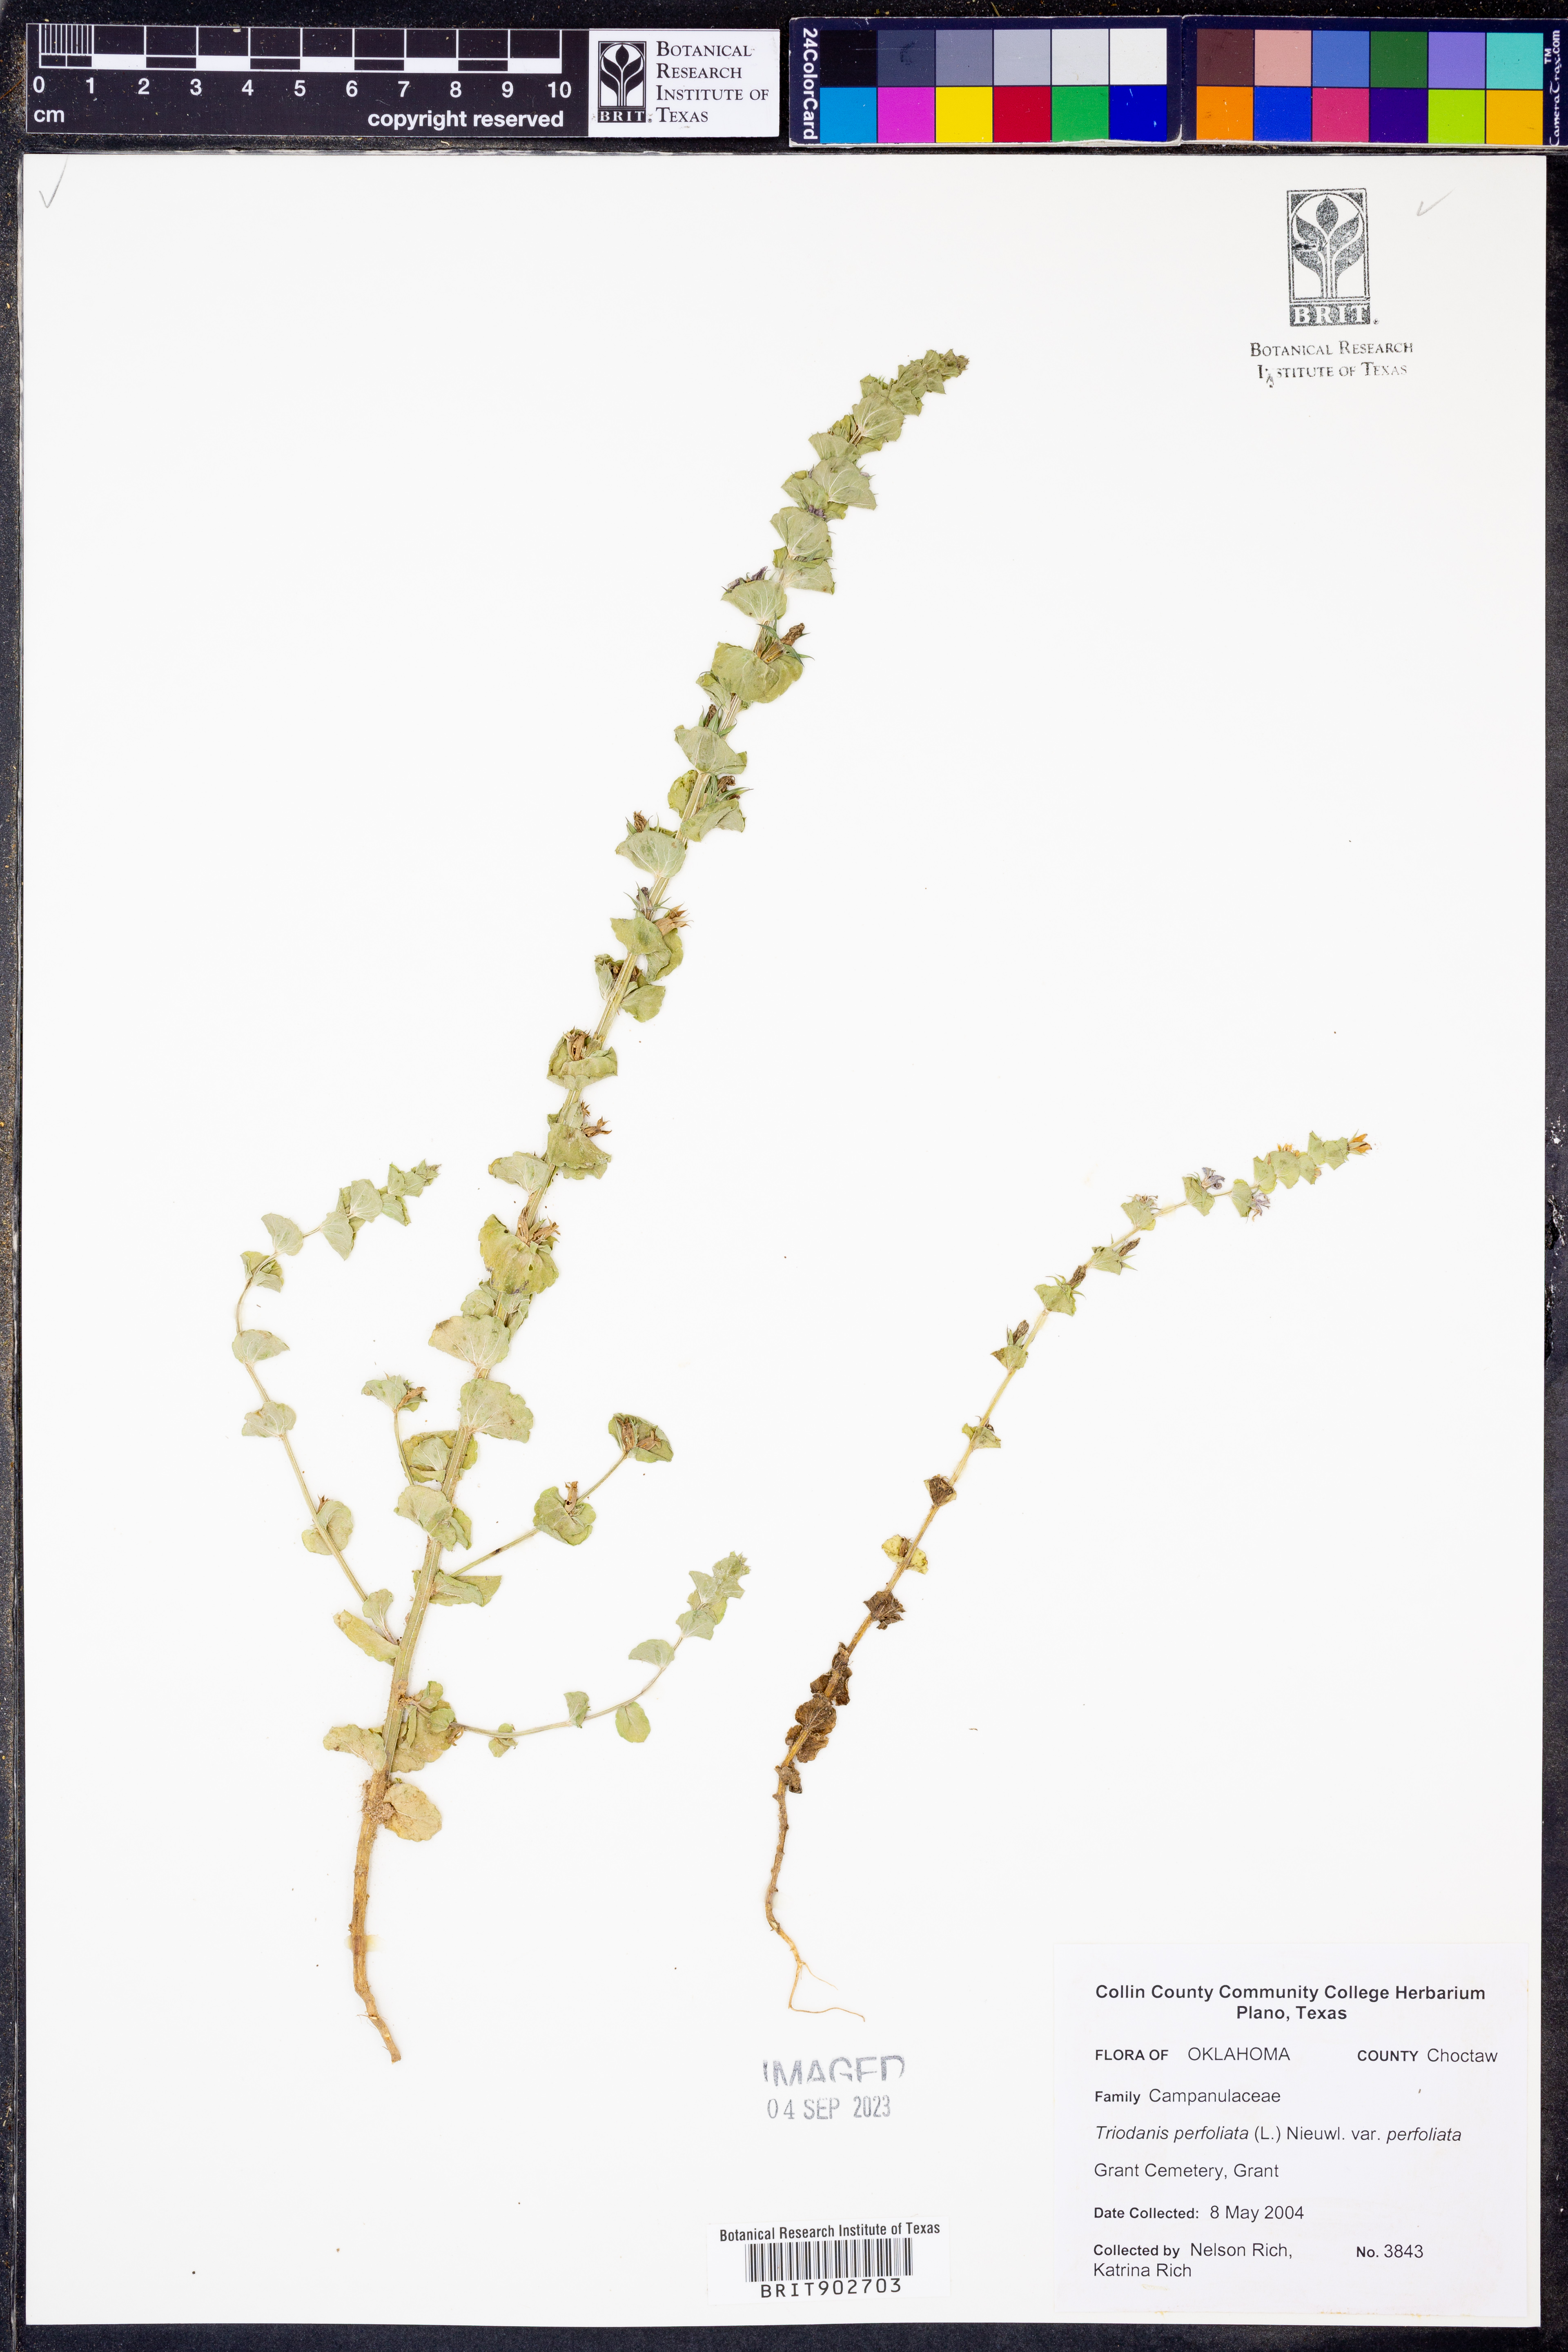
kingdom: Plantae
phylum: Tracheophyta
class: Magnoliopsida
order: Asterales
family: Campanulaceae
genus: Triodanis
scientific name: Triodanis perfoliata
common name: Clasping venus' looking-glass
